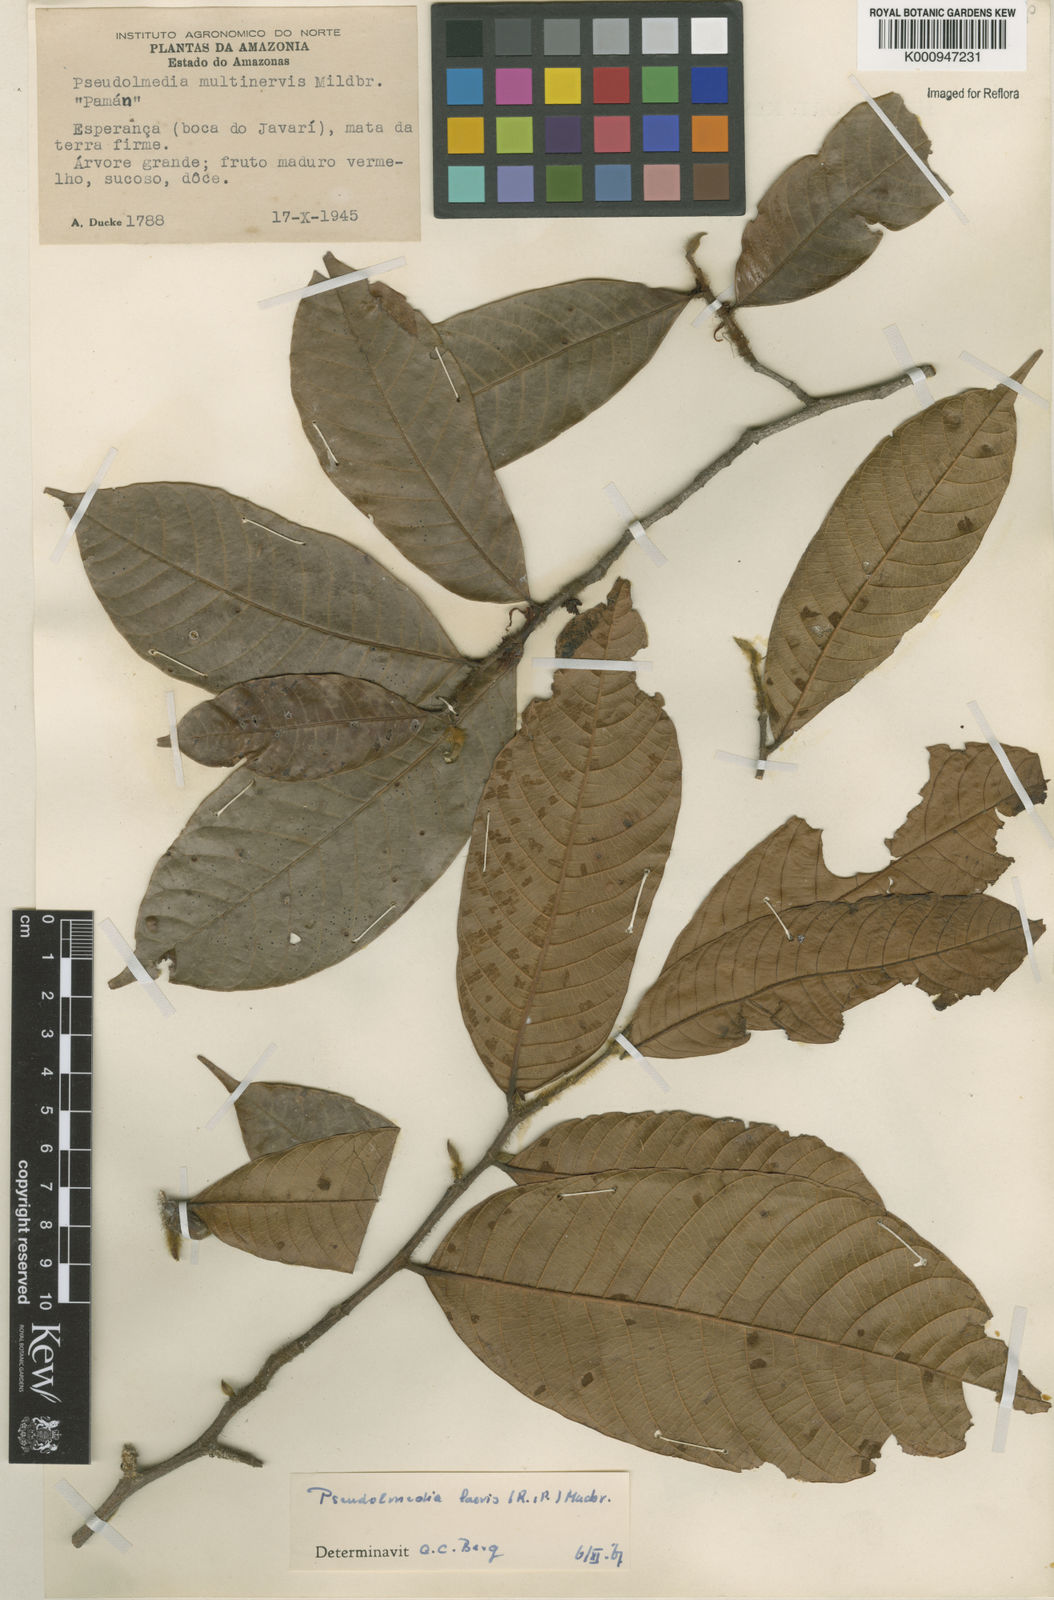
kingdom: Plantae
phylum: Tracheophyta
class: Magnoliopsida
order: Rosales
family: Moraceae
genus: Pseudolmedia
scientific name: Pseudolmedia laevis
